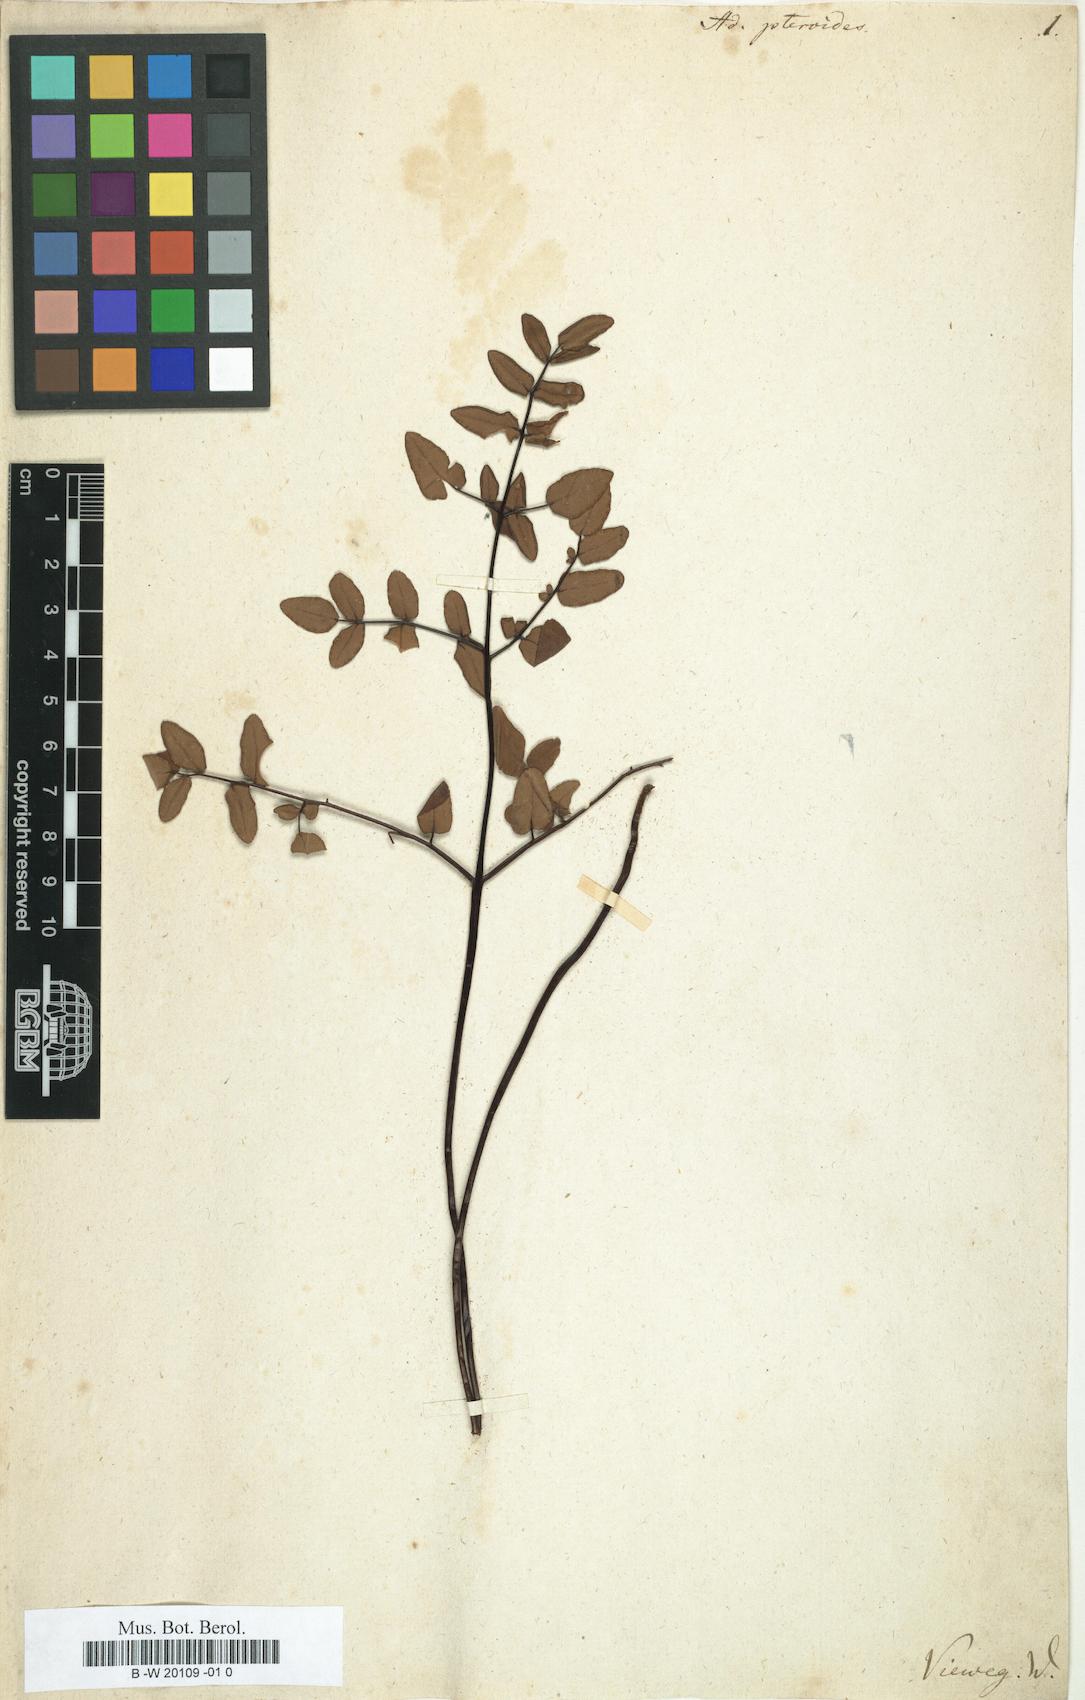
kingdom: Plantae
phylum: Tracheophyta
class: Polypodiopsida
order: Polypodiales
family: Pteridaceae
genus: Pellaea
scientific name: Pellaea pteroides
